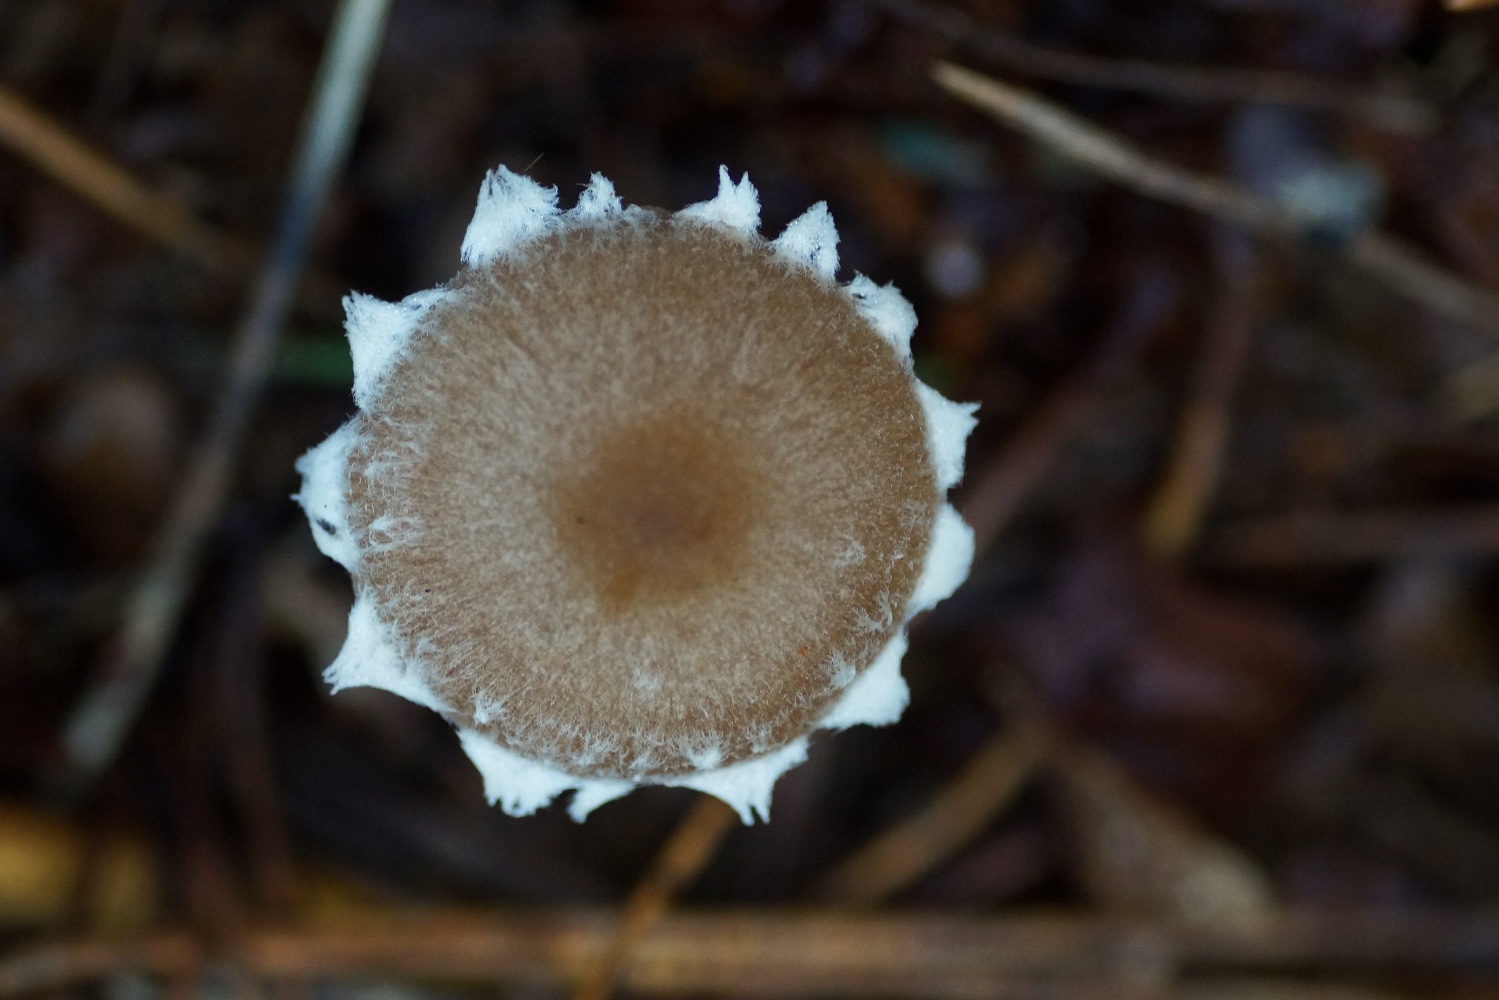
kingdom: Fungi
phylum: Basidiomycota
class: Agaricomycetes
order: Agaricales
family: Psathyrellaceae
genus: Psathyrella
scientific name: Psathyrella
